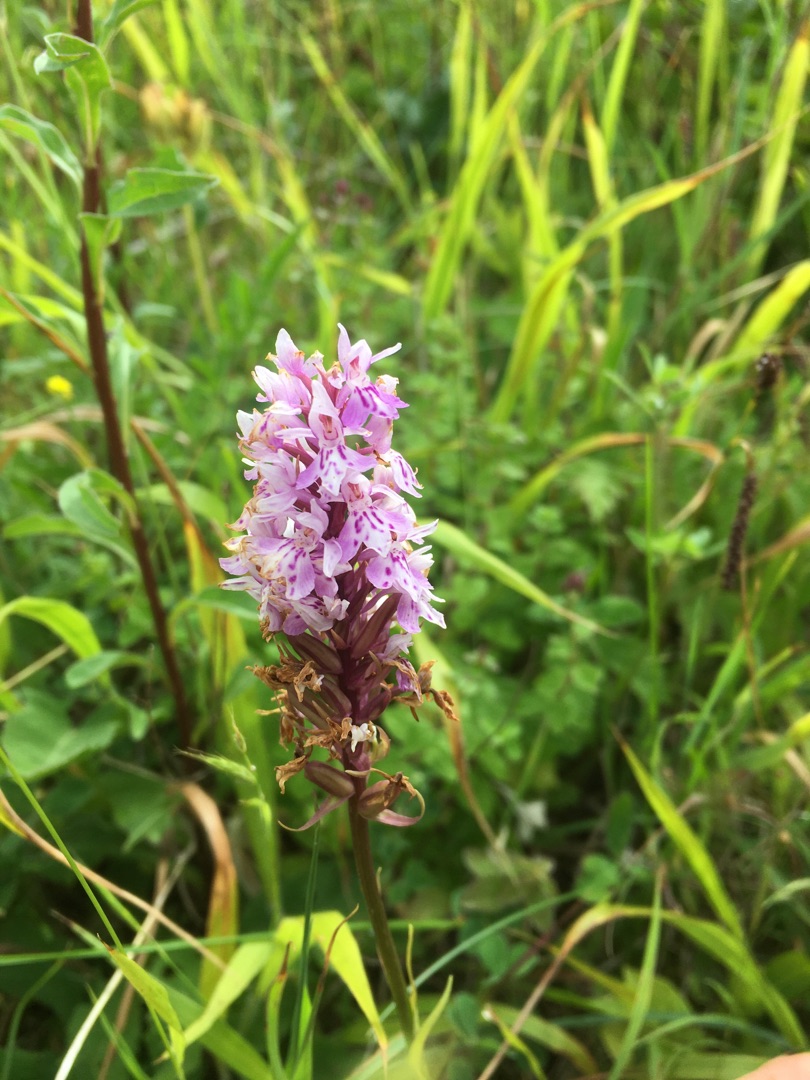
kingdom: Plantae
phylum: Tracheophyta
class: Liliopsida
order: Asparagales
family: Orchidaceae
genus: Dactylorhiza
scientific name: Dactylorhiza maculata
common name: Skov-gøgeurt
